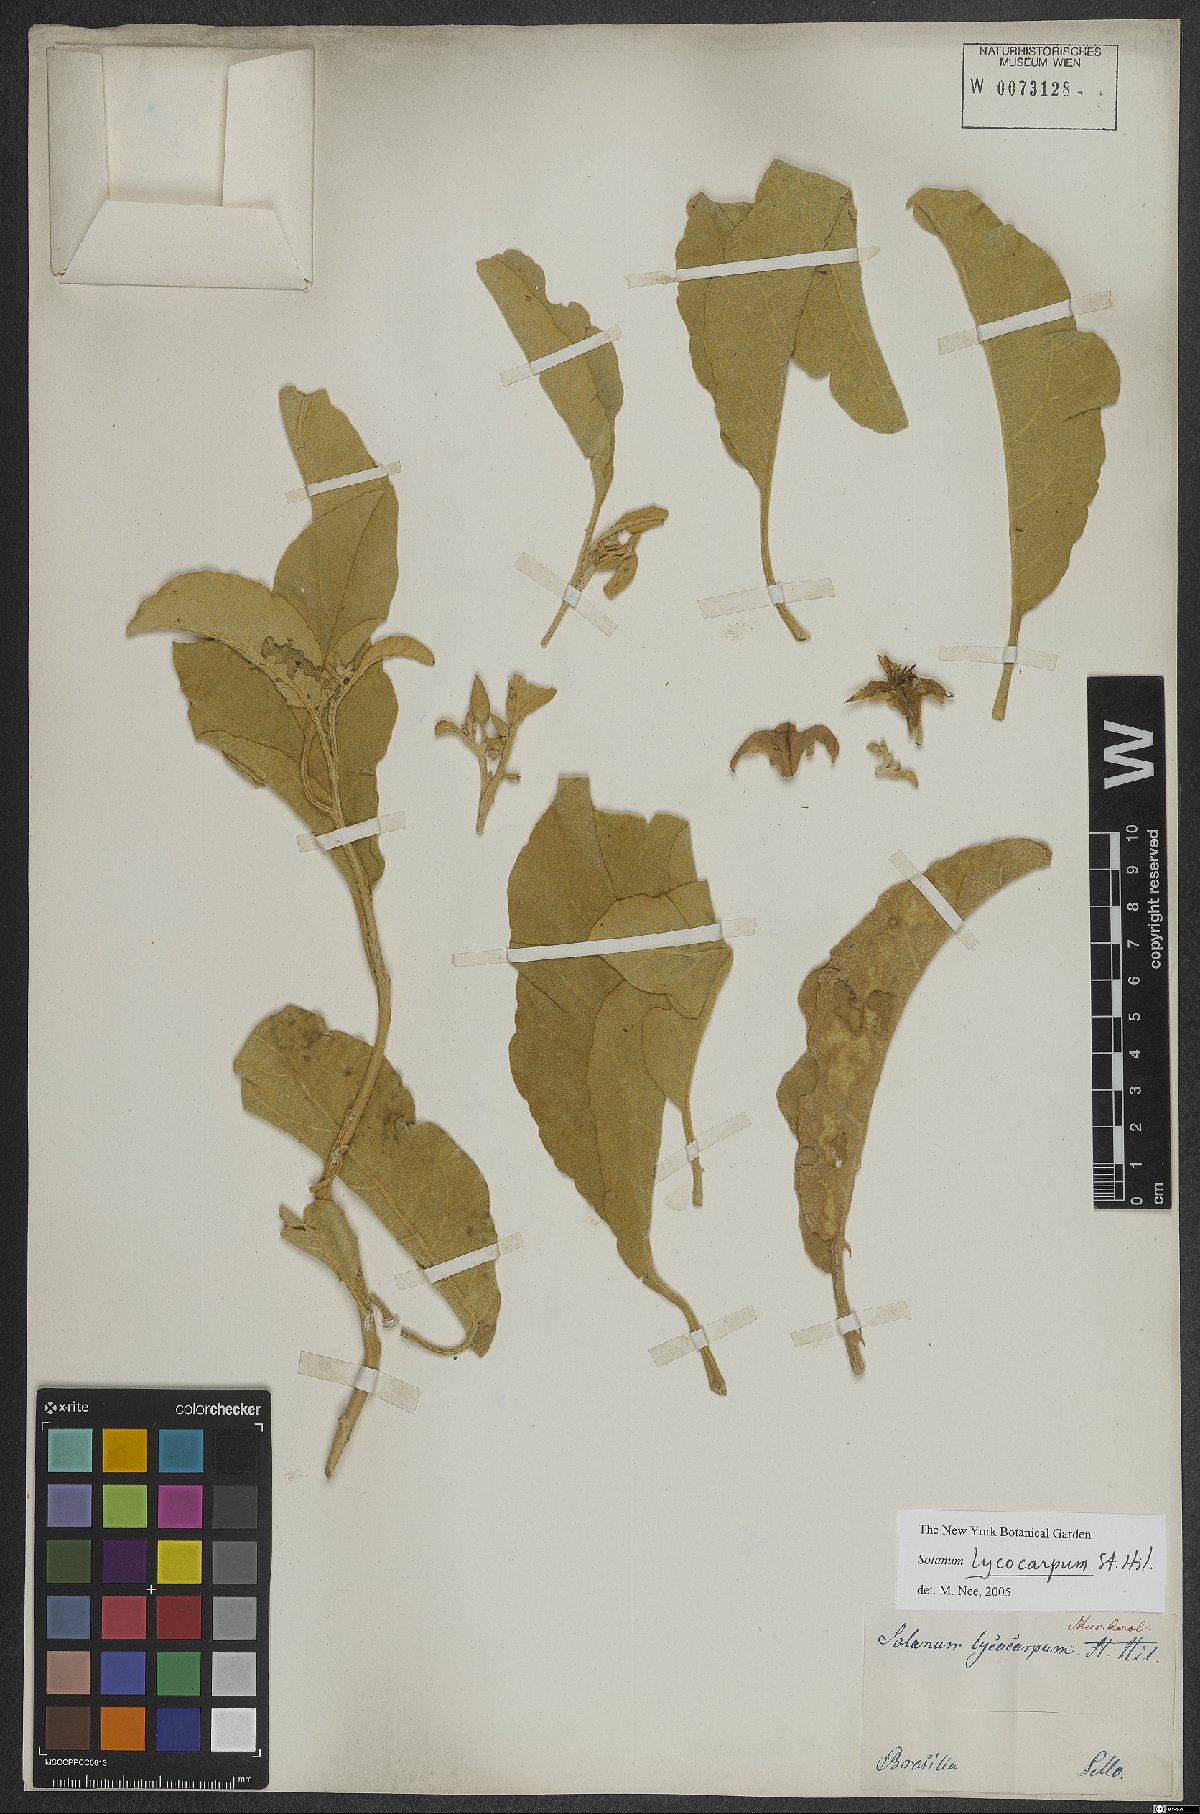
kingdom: Plantae
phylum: Tracheophyta
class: Magnoliopsida
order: Solanales
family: Solanaceae
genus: Solanum
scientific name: Solanum lycocarpum
